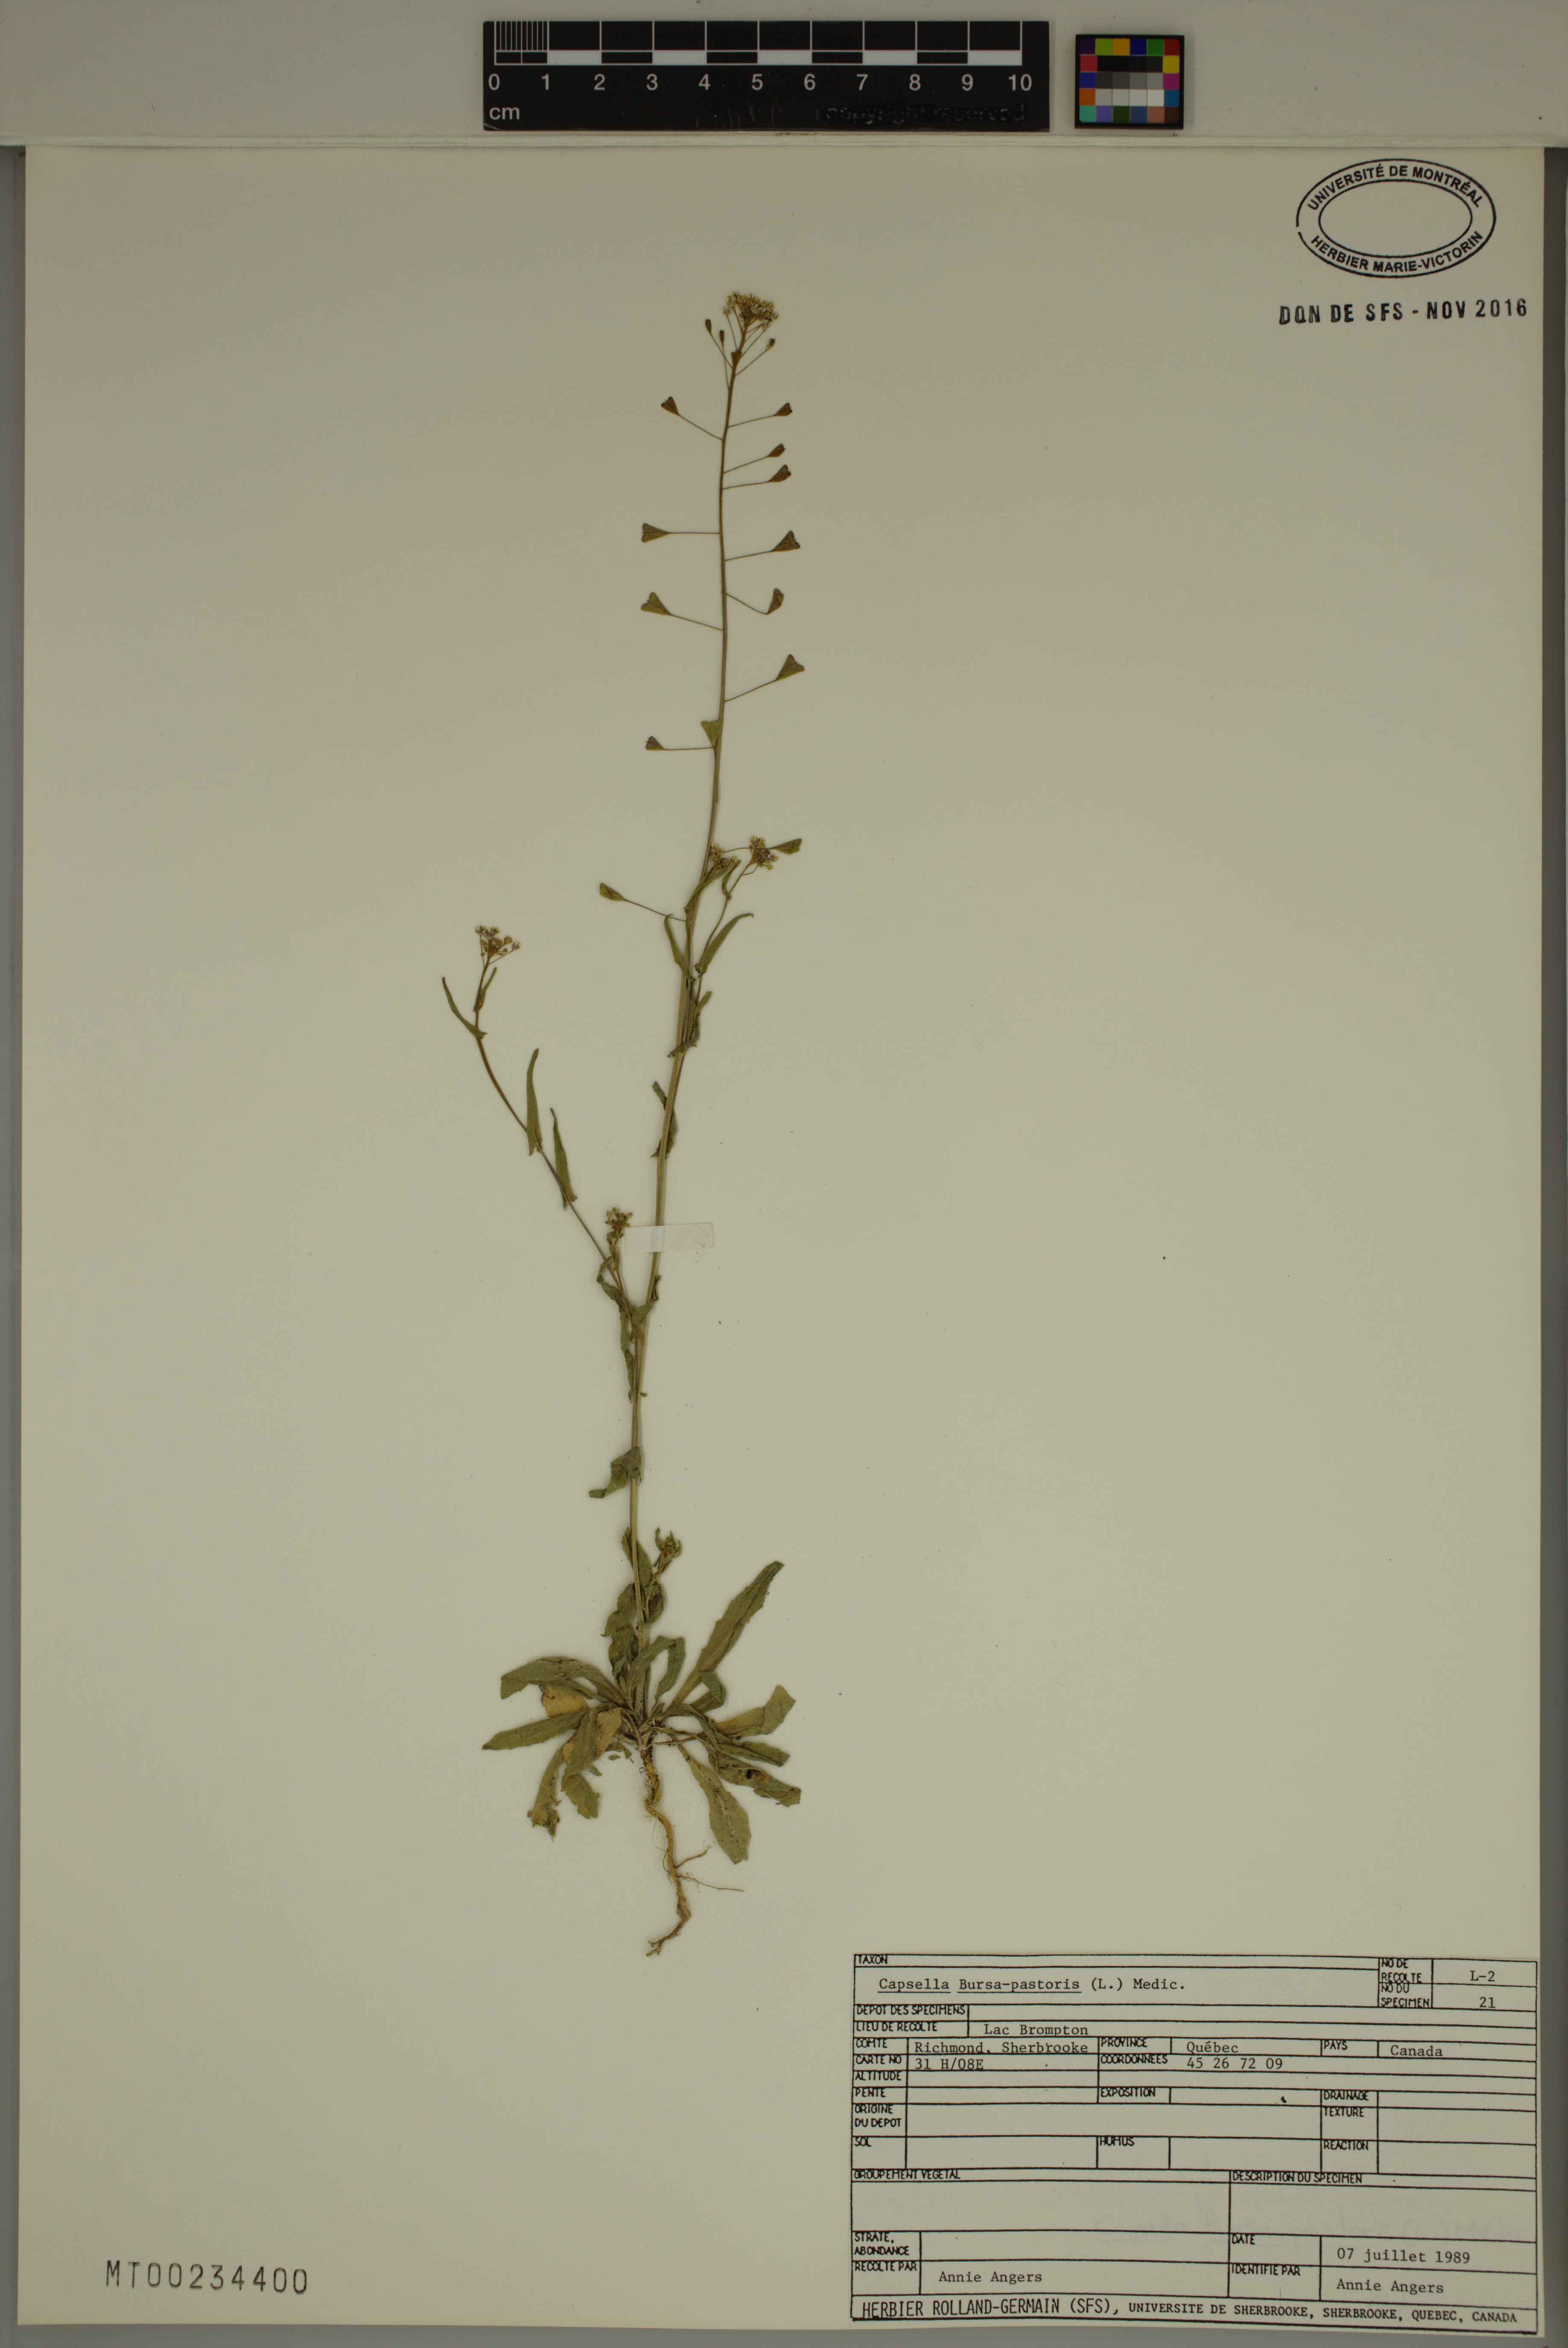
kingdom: Plantae
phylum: Tracheophyta
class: Magnoliopsida
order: Brassicales
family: Brassicaceae
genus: Capsella
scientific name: Capsella bursa-pastoris
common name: Shepherd's purse
